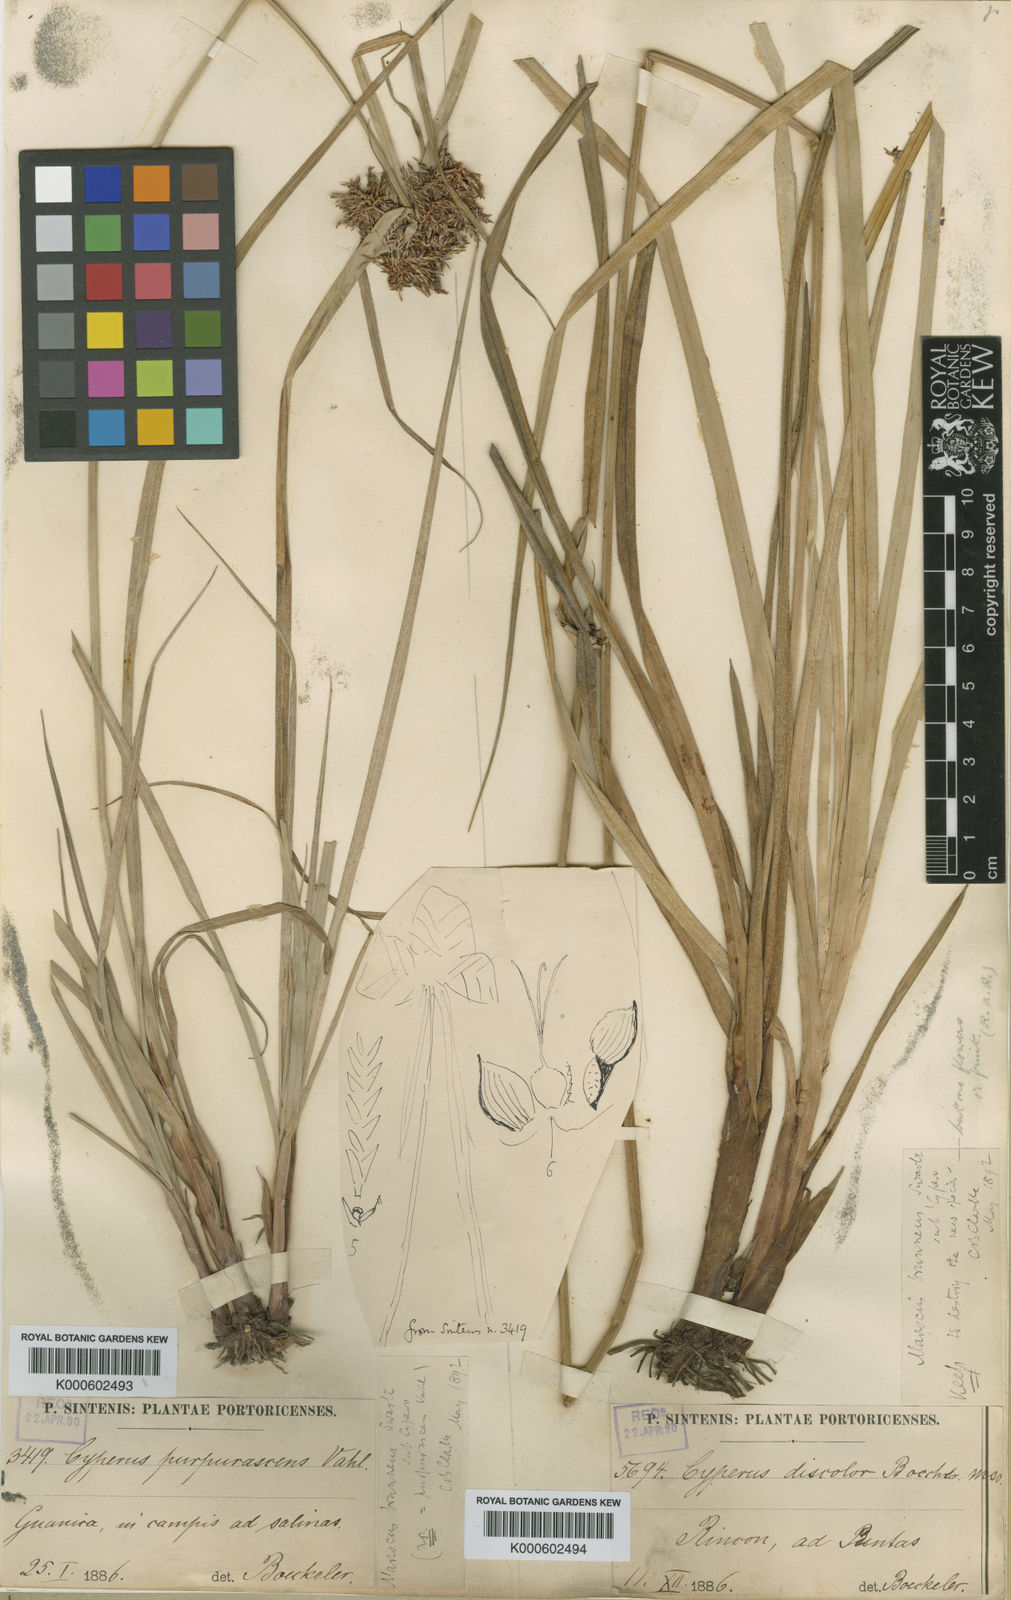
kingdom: Plantae
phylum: Tracheophyta
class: Liliopsida
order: Poales
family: Cyperaceae
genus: Cyperus
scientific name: Cyperus planifolius
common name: Bullgrass
